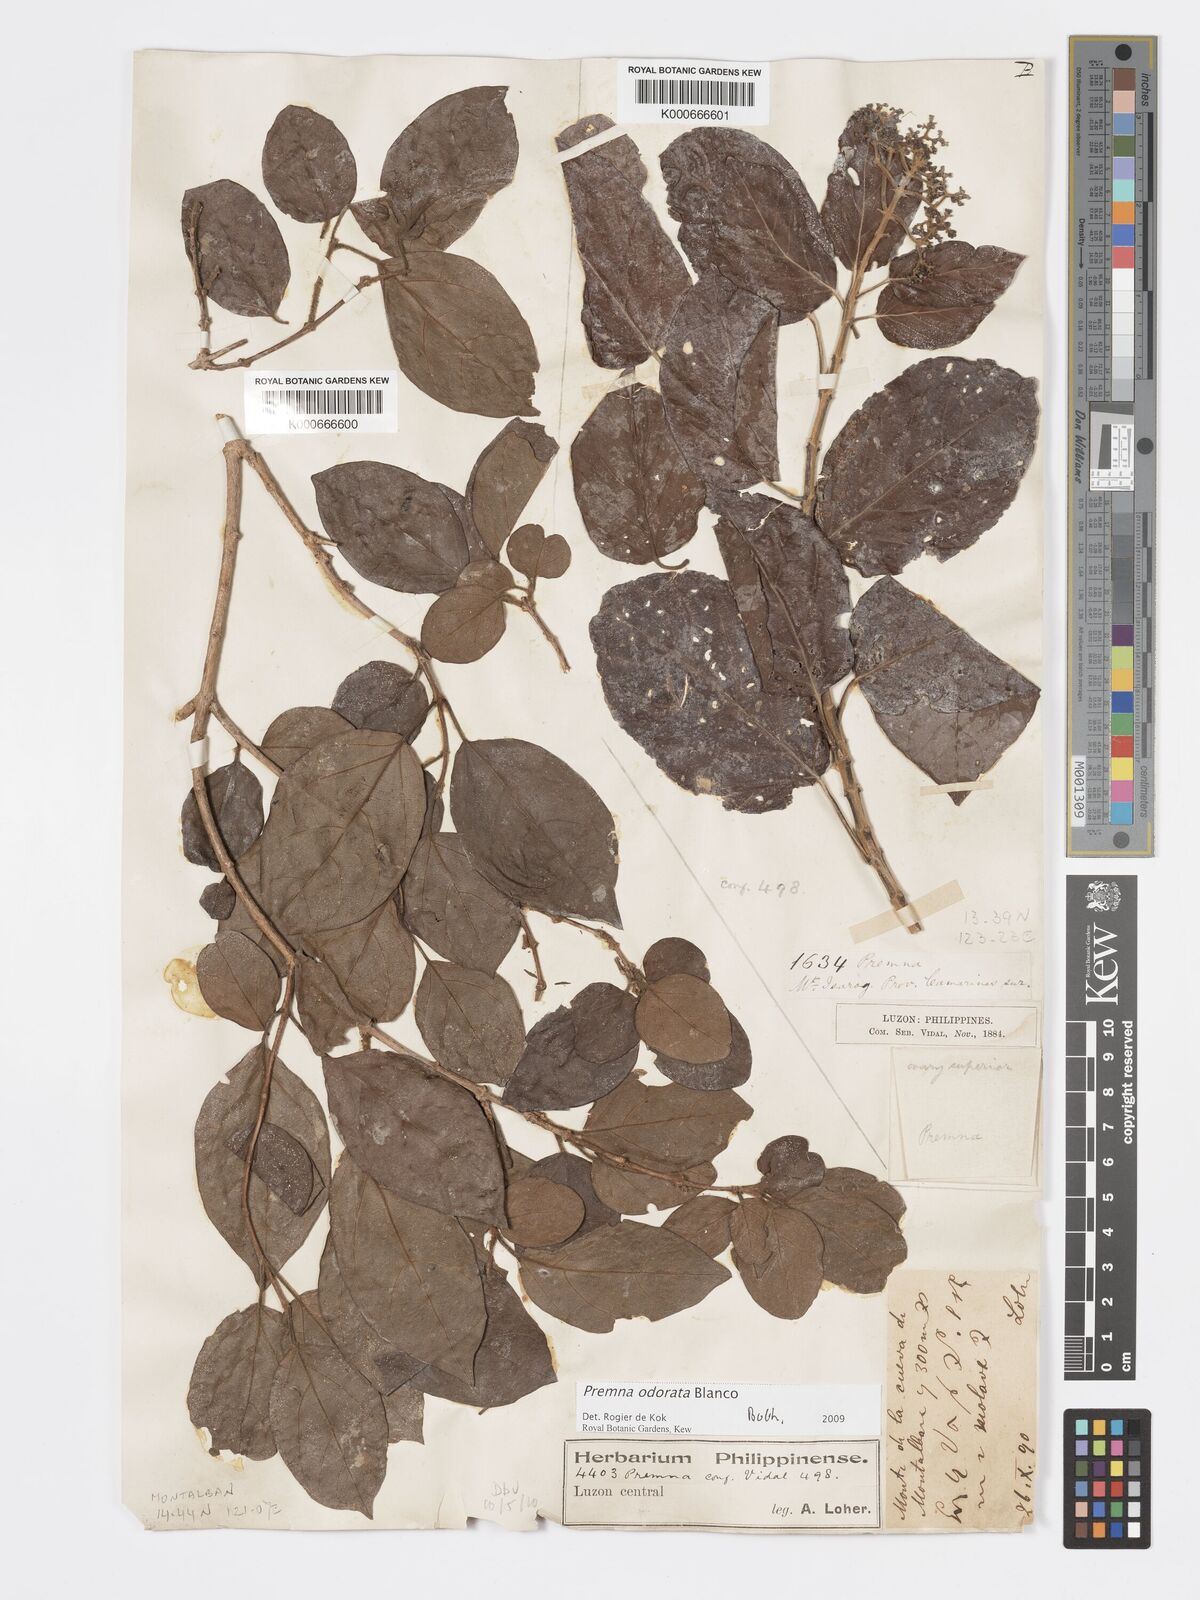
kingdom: Plantae
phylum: Tracheophyta
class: Magnoliopsida
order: Lamiales
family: Lamiaceae
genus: Premna
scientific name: Premna odorata
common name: Fragrant premna
